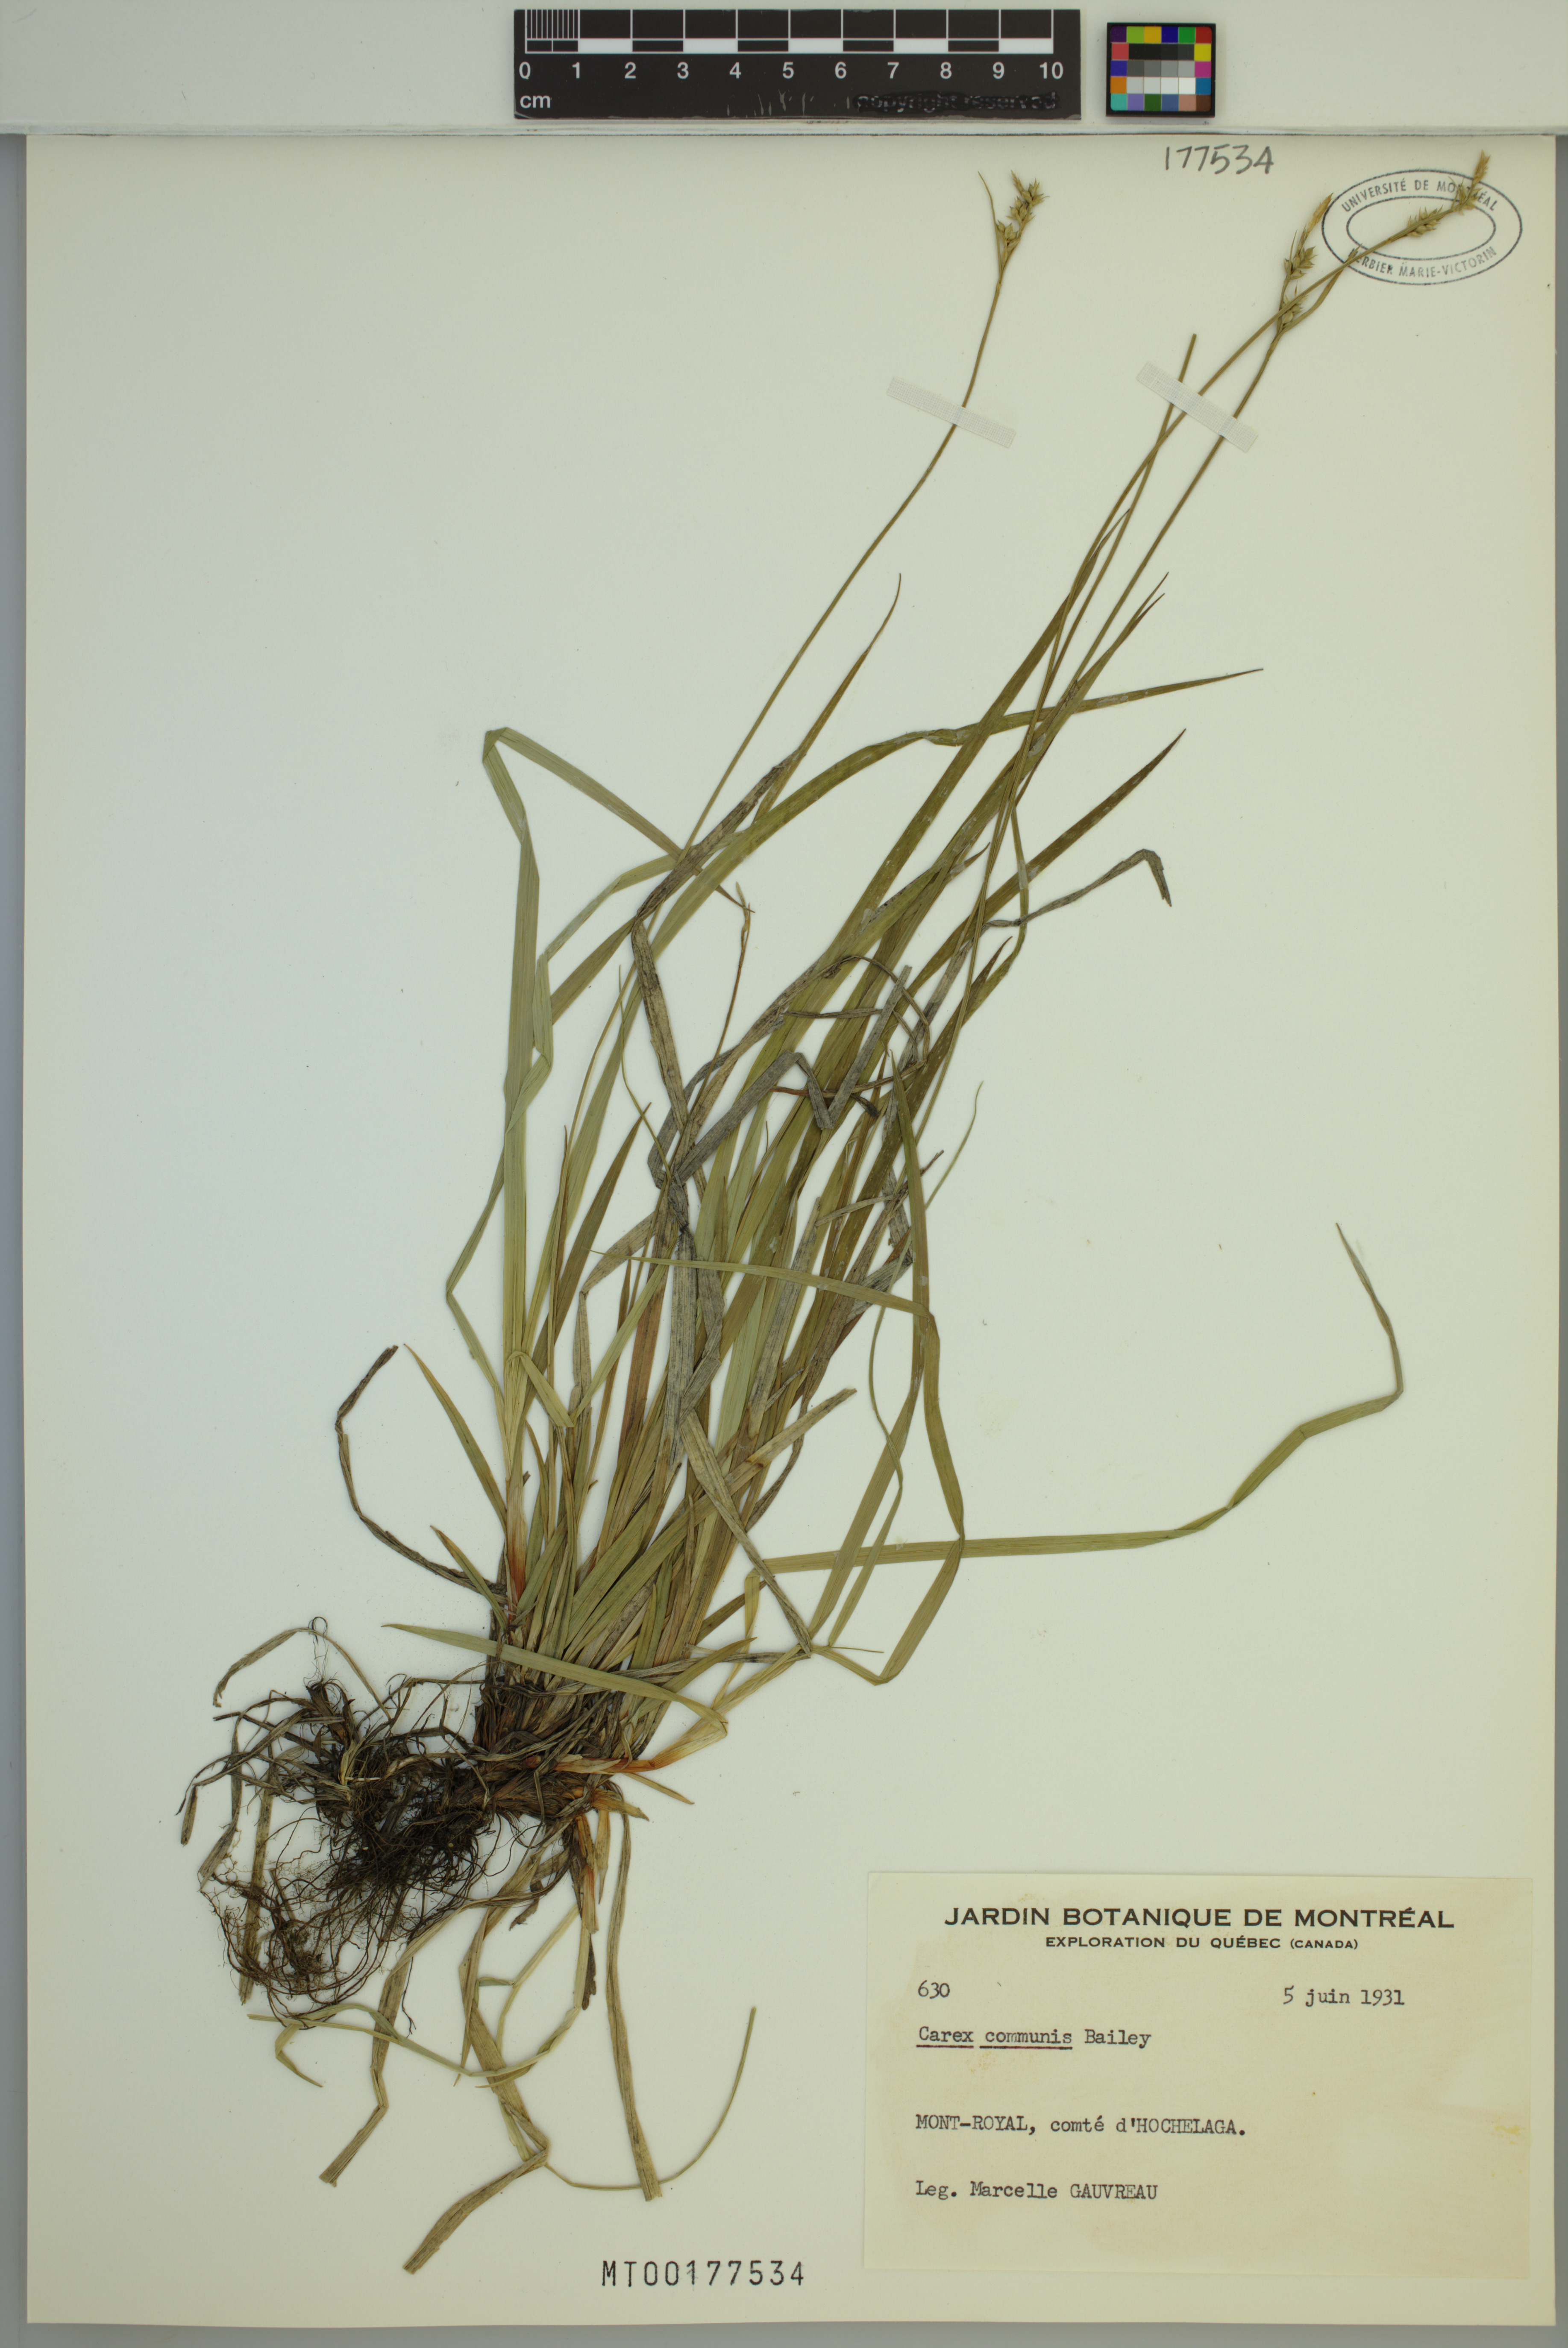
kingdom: Plantae
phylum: Tracheophyta
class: Liliopsida
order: Poales
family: Cyperaceae
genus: Carex
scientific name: Carex communis
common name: Colonial oak sedge
